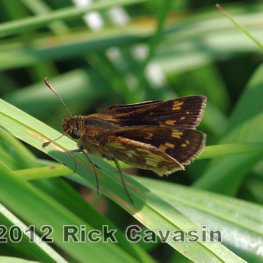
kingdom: Animalia
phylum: Arthropoda
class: Insecta
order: Lepidoptera
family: Hesperiidae
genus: Polites
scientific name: Polites coras
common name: Peck's Skipper
